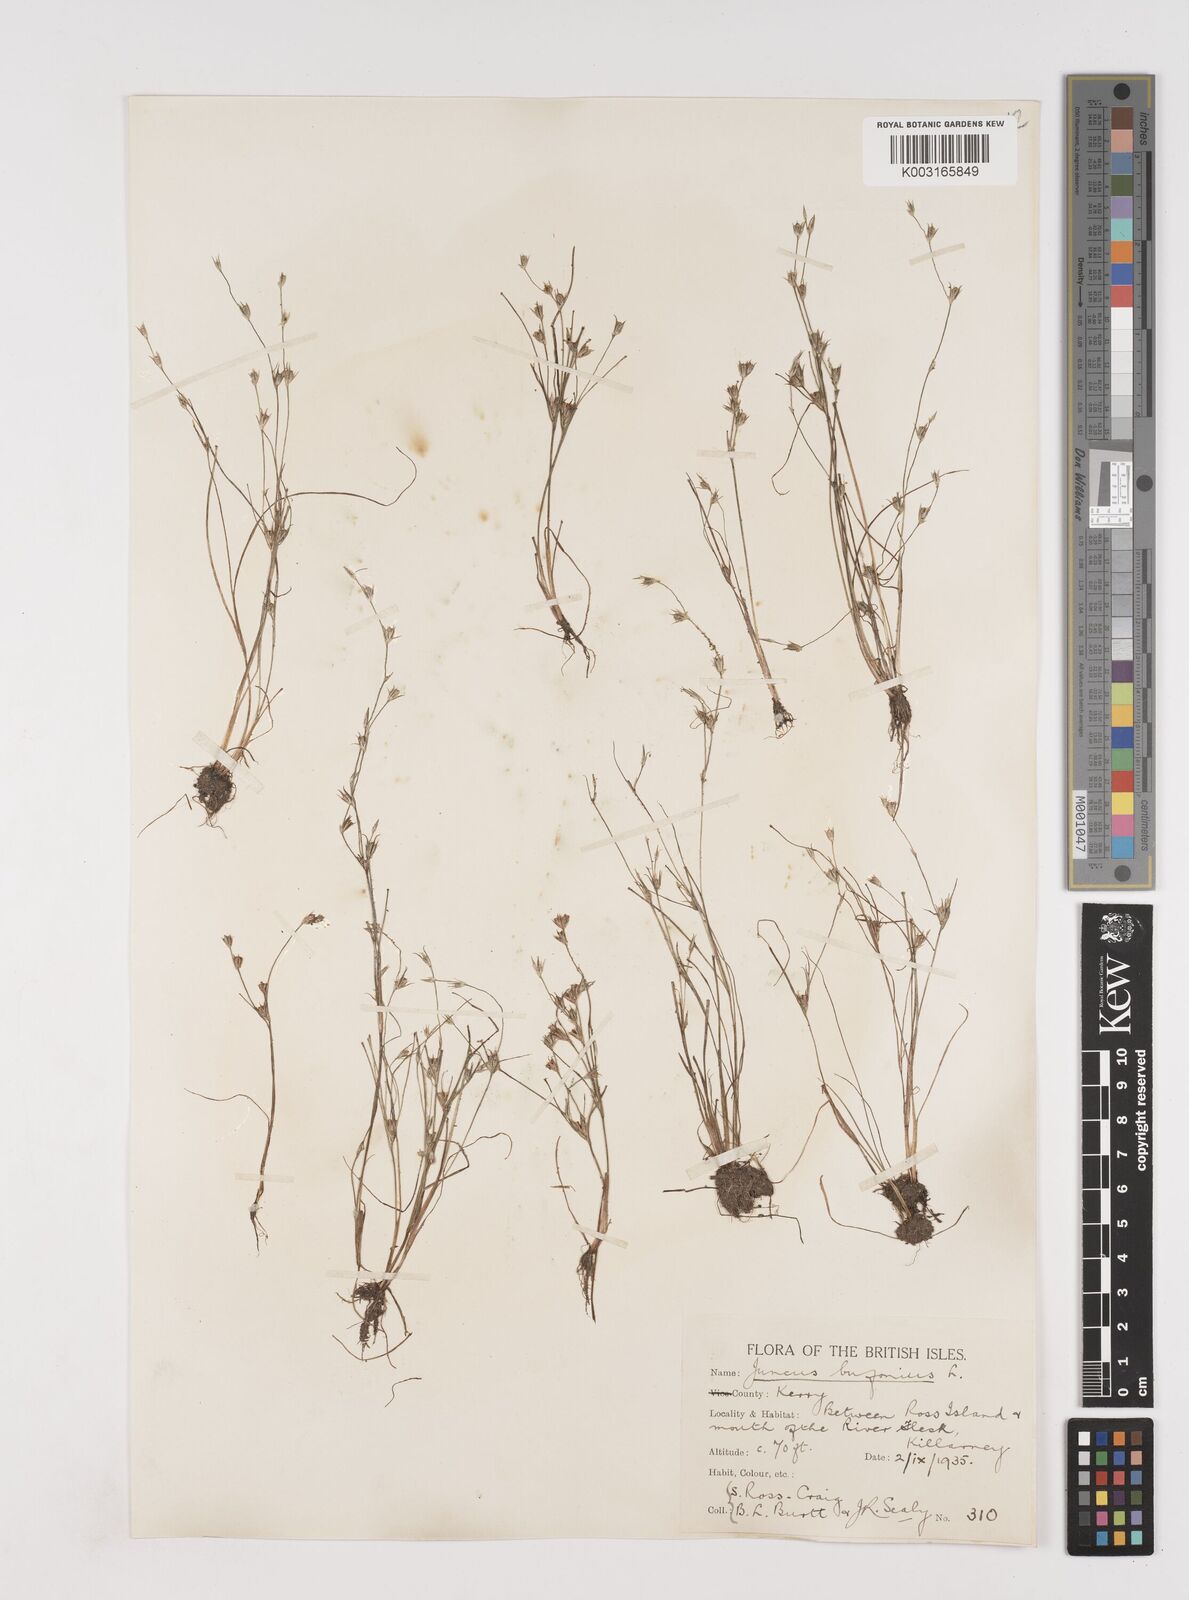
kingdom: Plantae
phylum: Tracheophyta
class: Liliopsida
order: Poales
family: Juncaceae
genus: Juncus
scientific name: Juncus bufonius
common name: Toad rush
